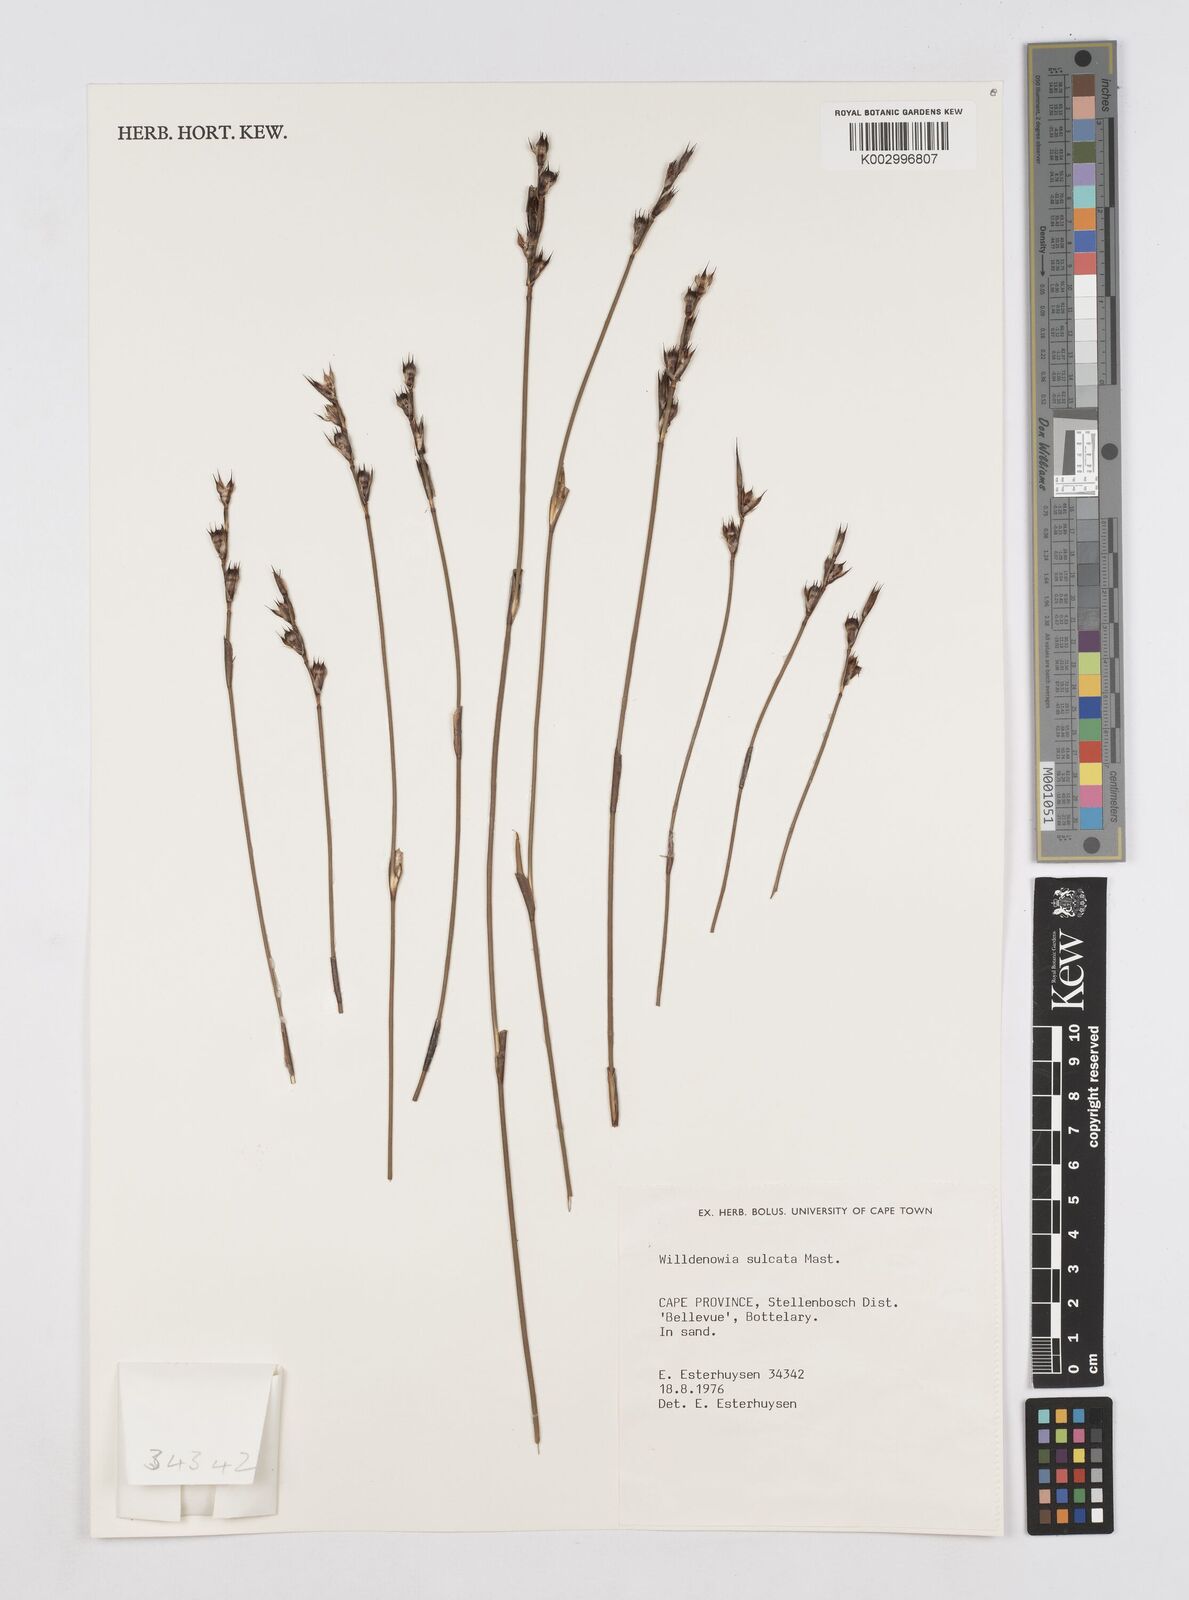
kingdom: Plantae
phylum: Tracheophyta
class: Liliopsida
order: Poales
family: Restionaceae
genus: Willdenowia
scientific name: Willdenowia sulcata
